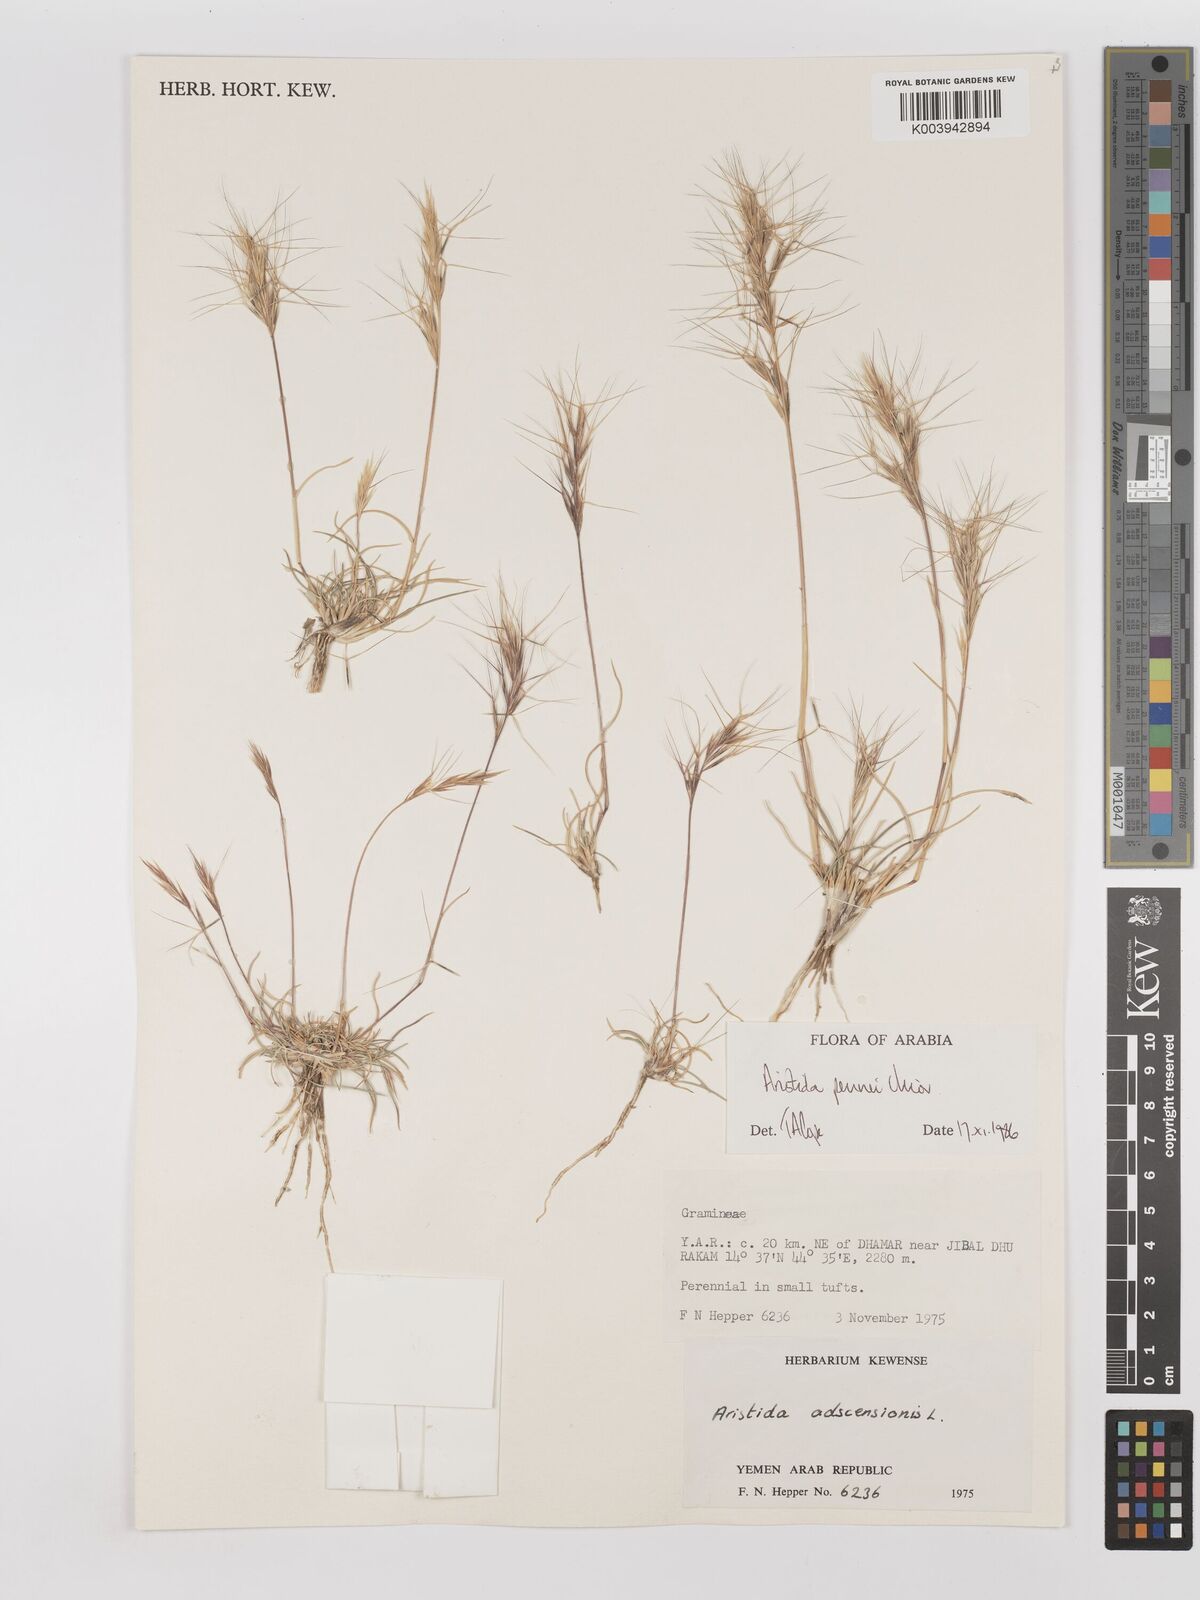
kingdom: Plantae
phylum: Tracheophyta
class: Liliopsida
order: Poales
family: Poaceae
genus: Aristida
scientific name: Aristida pennei
